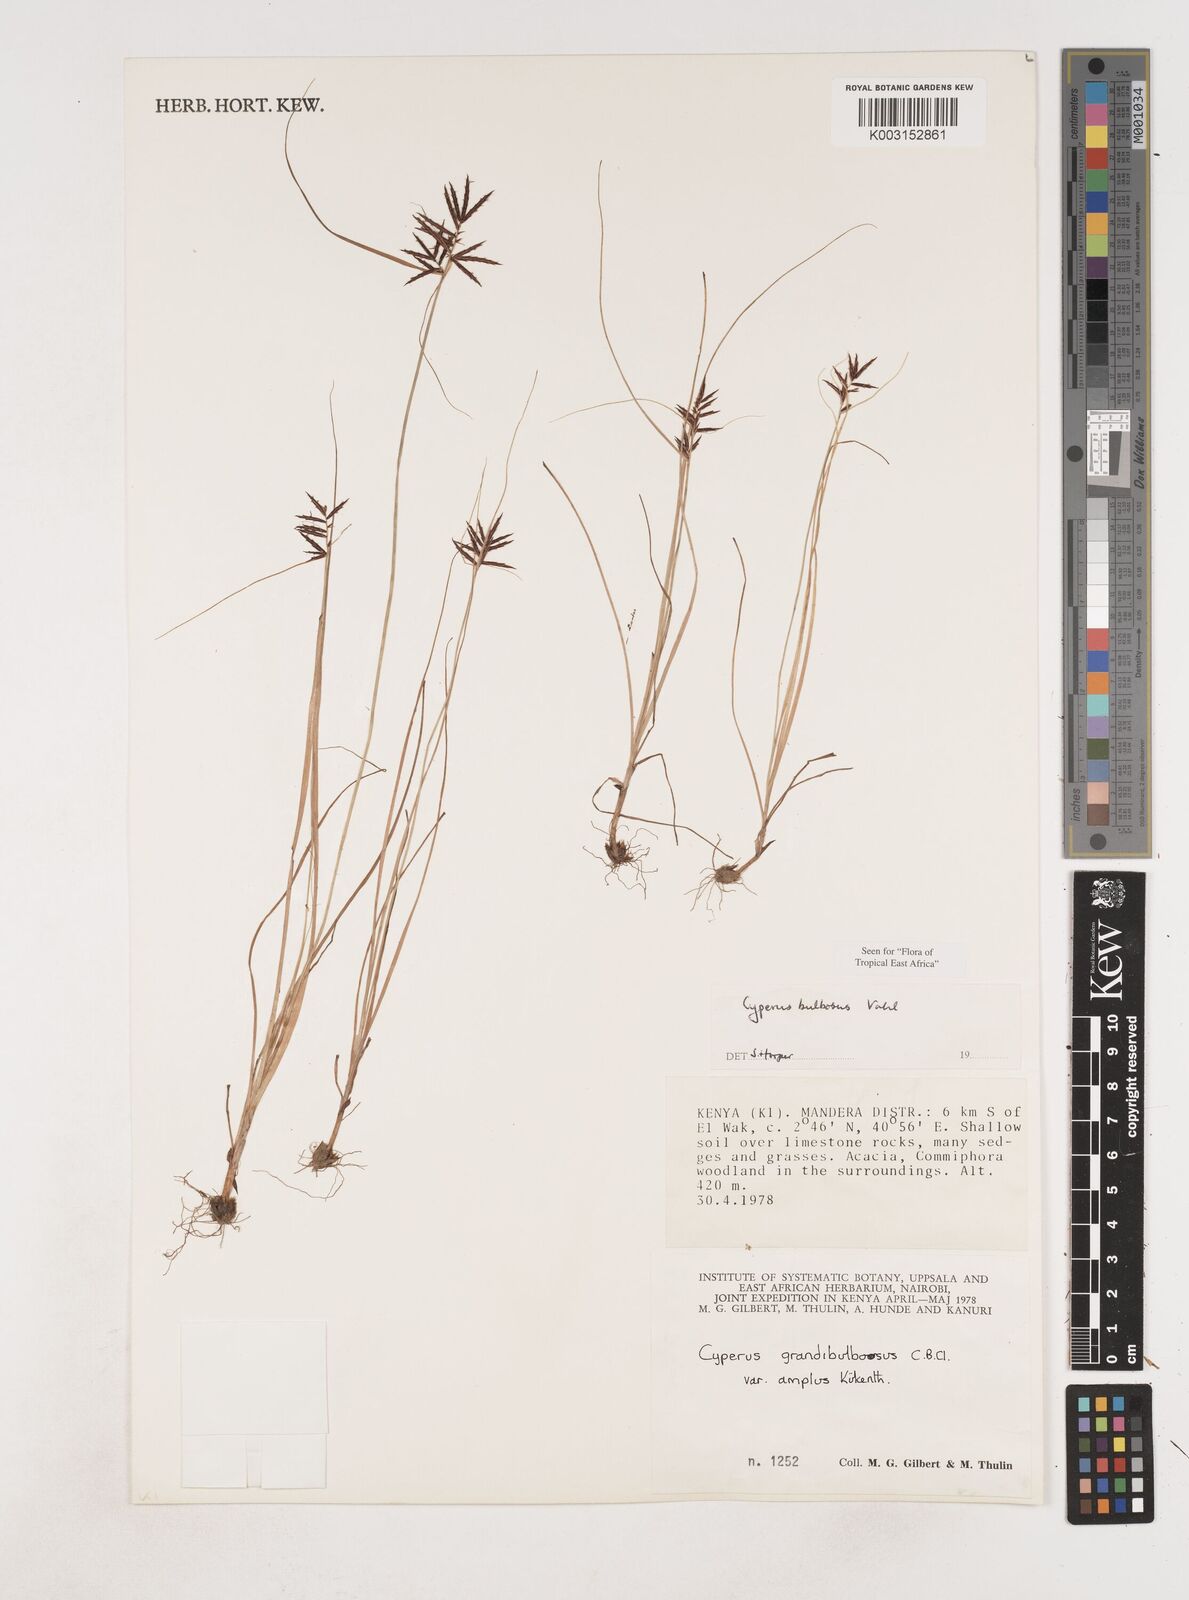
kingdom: Plantae
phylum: Tracheophyta
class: Liliopsida
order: Poales
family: Cyperaceae
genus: Cyperus
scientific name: Cyperus bulbosus
